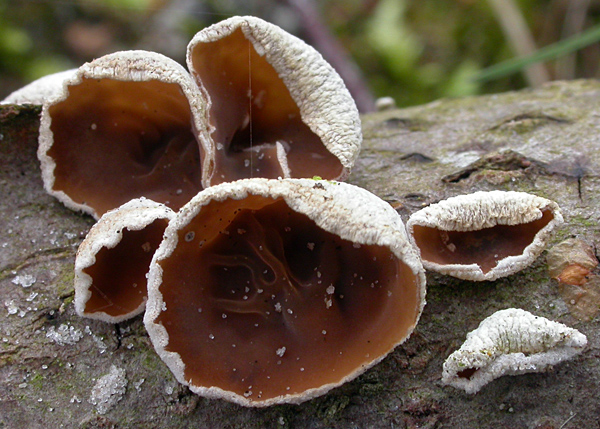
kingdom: Fungi
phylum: Basidiomycota
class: Agaricomycetes
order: Agaricales
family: Schizophyllaceae
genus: Schizophyllum
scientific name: Schizophyllum amplum
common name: poppel-hængeøre
